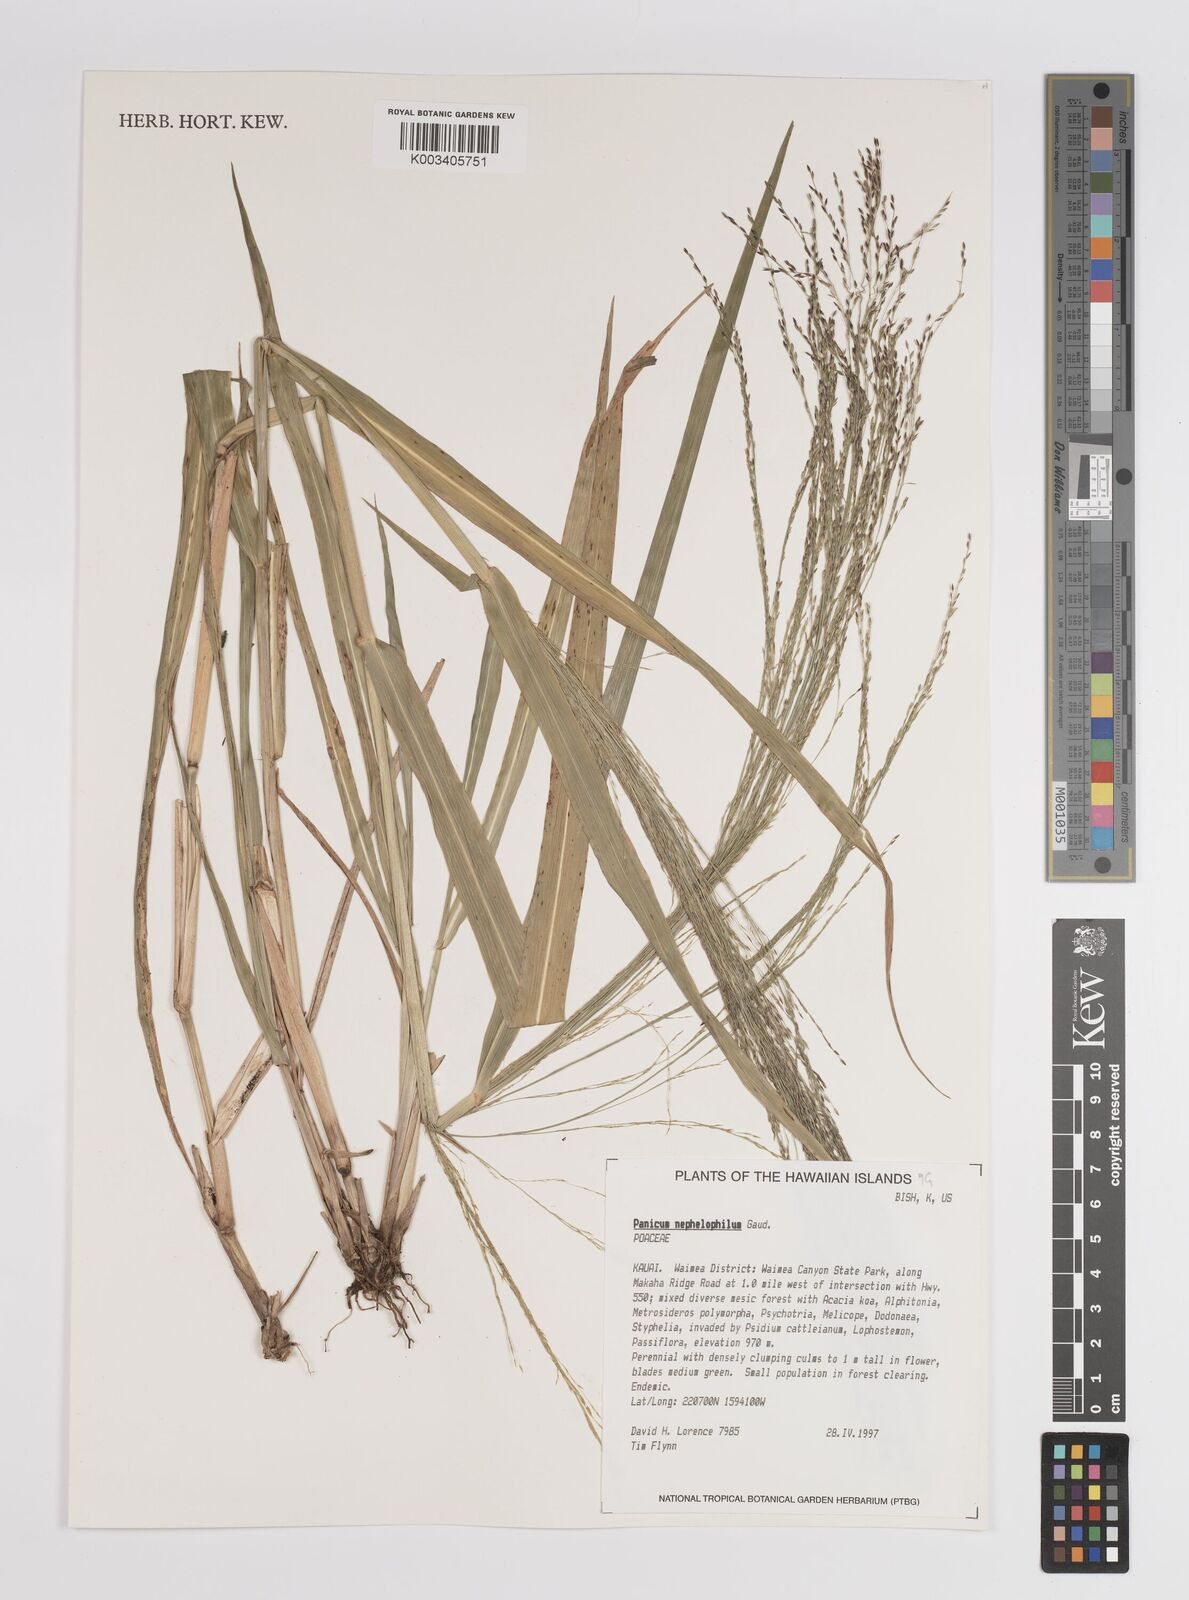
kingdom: Plantae
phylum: Tracheophyta
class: Liliopsida
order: Poales
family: Poaceae
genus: Panicum
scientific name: Panicum nephelophilum
